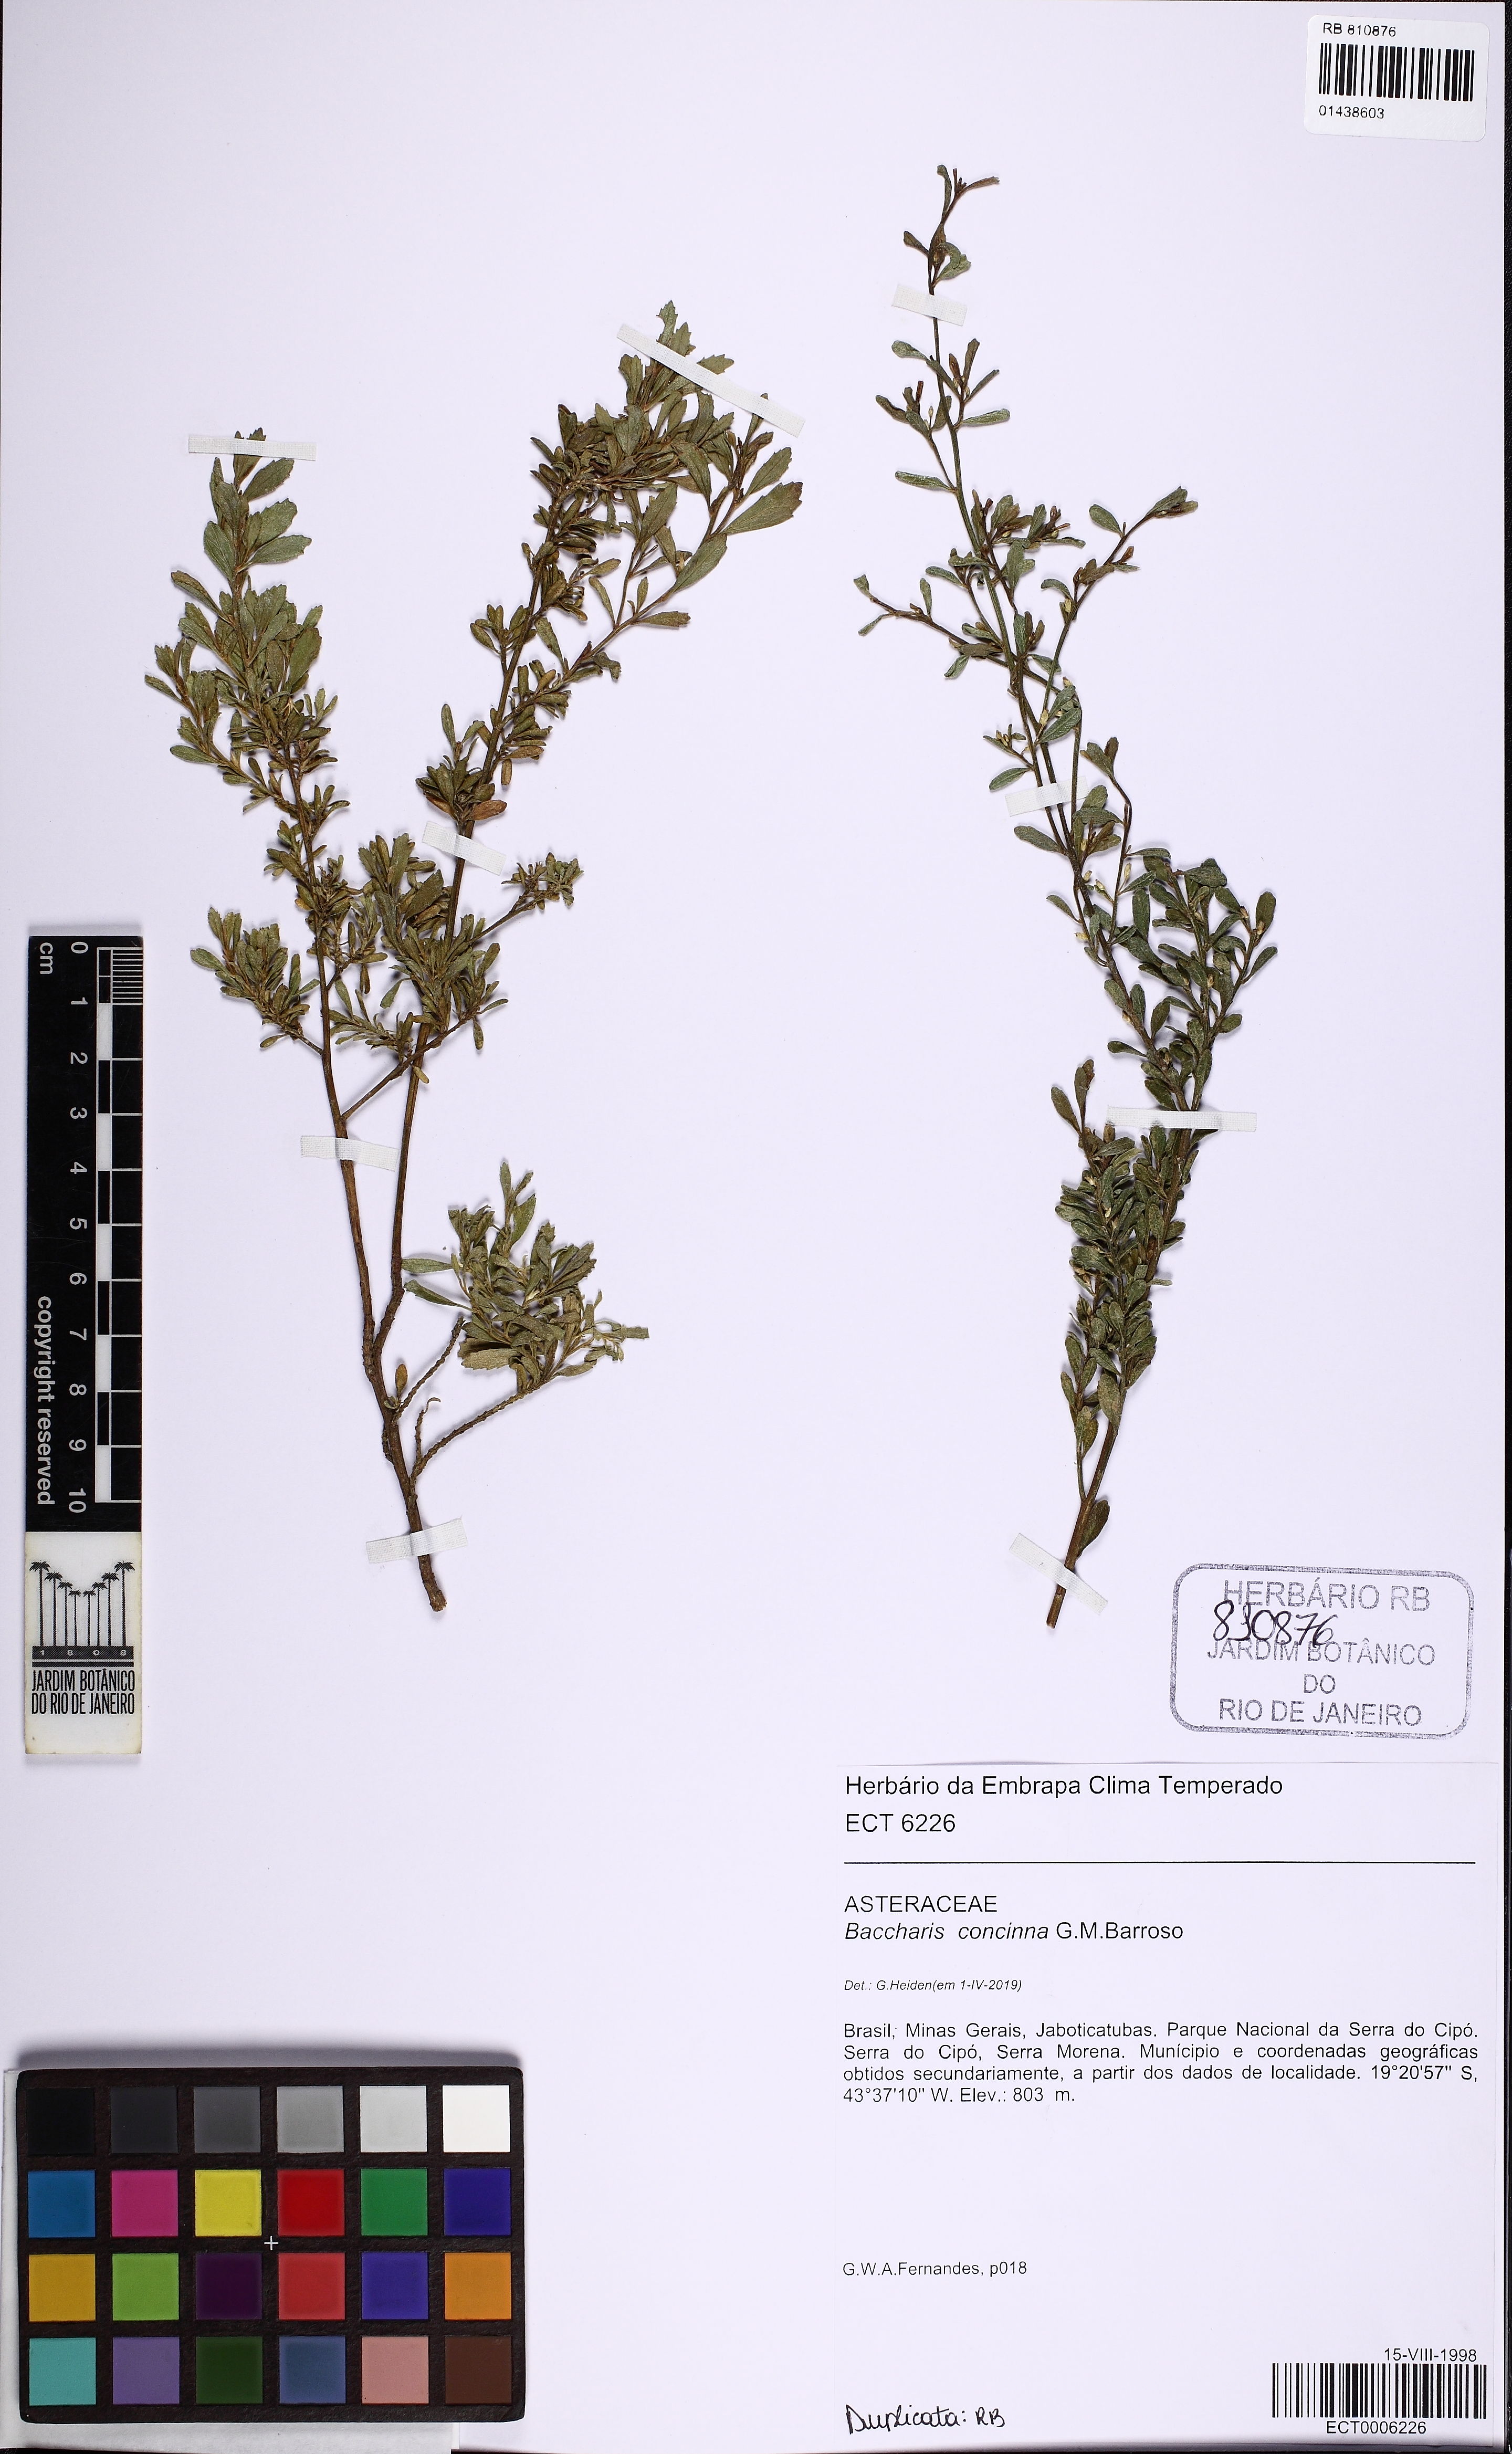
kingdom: Plantae
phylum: Tracheophyta
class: Magnoliopsida
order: Asterales
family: Asteraceae
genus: Baccharis
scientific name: Baccharis concinna
